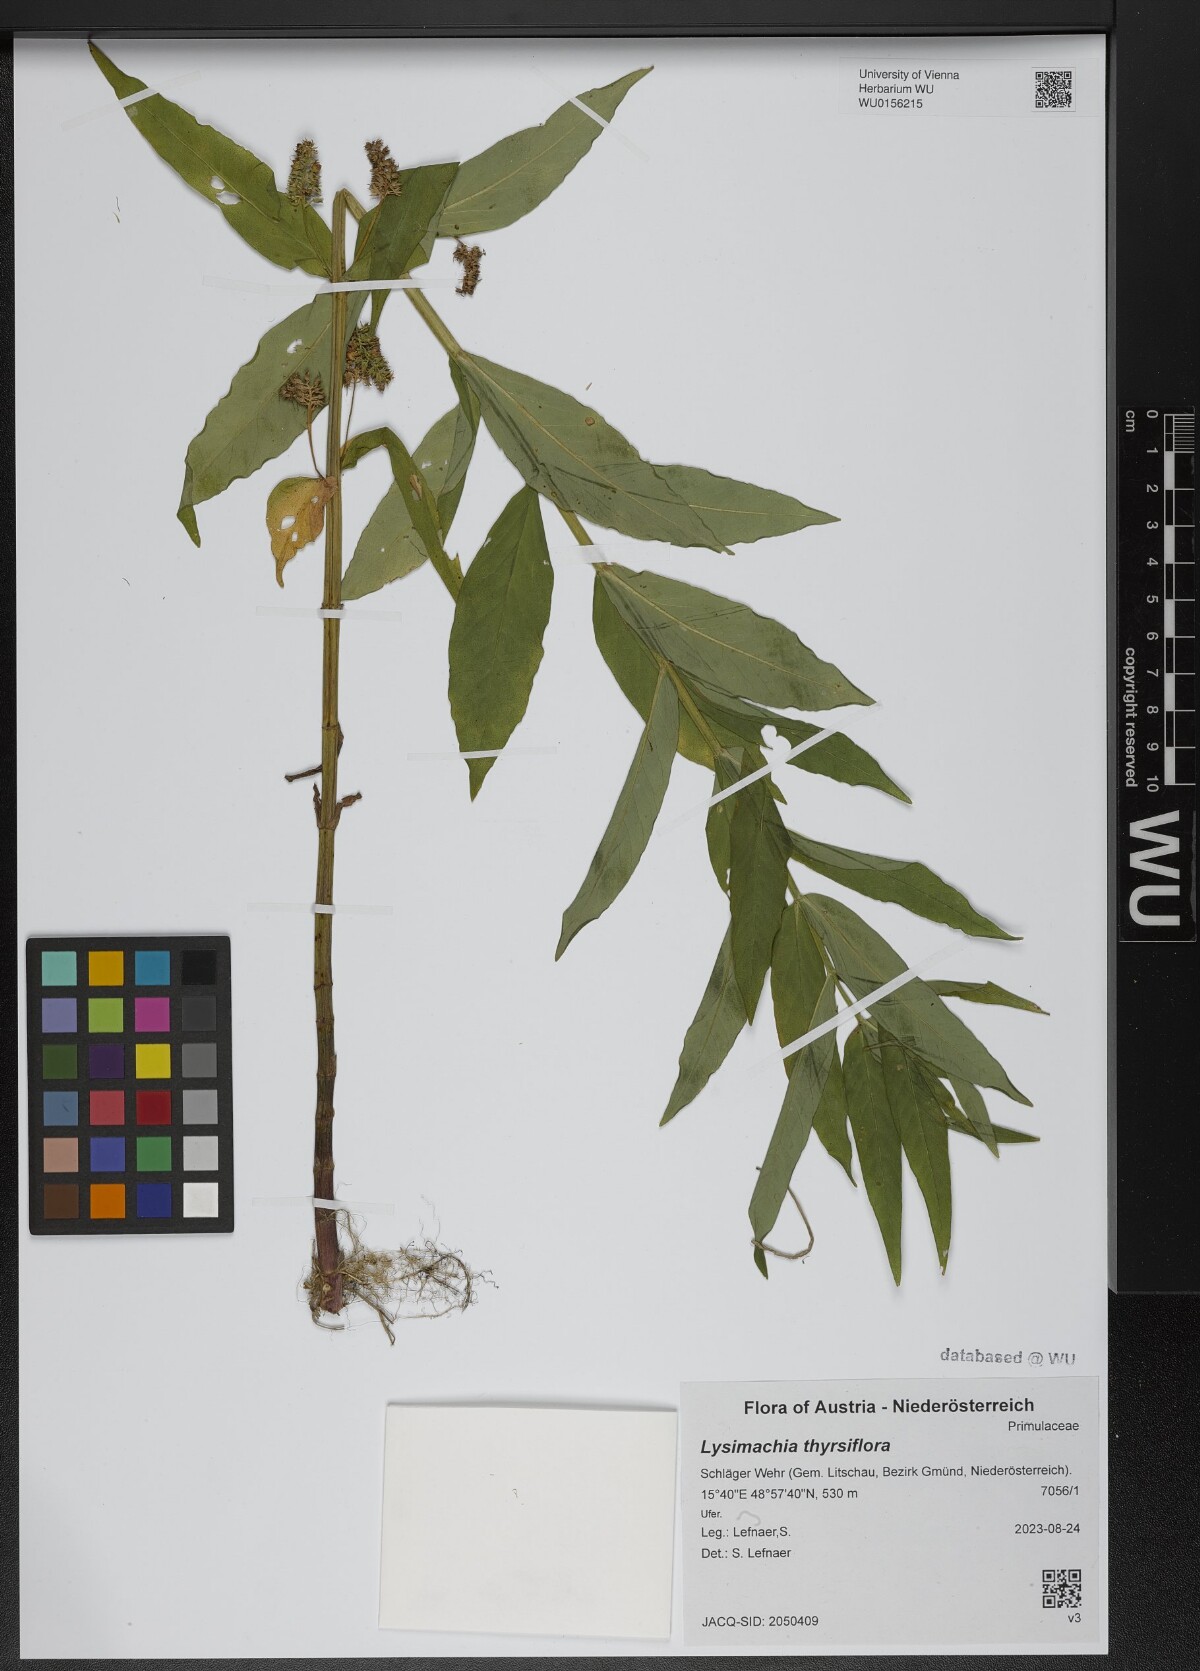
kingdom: Plantae
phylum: Tracheophyta
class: Magnoliopsida
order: Ericales
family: Primulaceae
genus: Lysimachia
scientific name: Lysimachia thyrsiflora
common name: Tufted loosestrife
